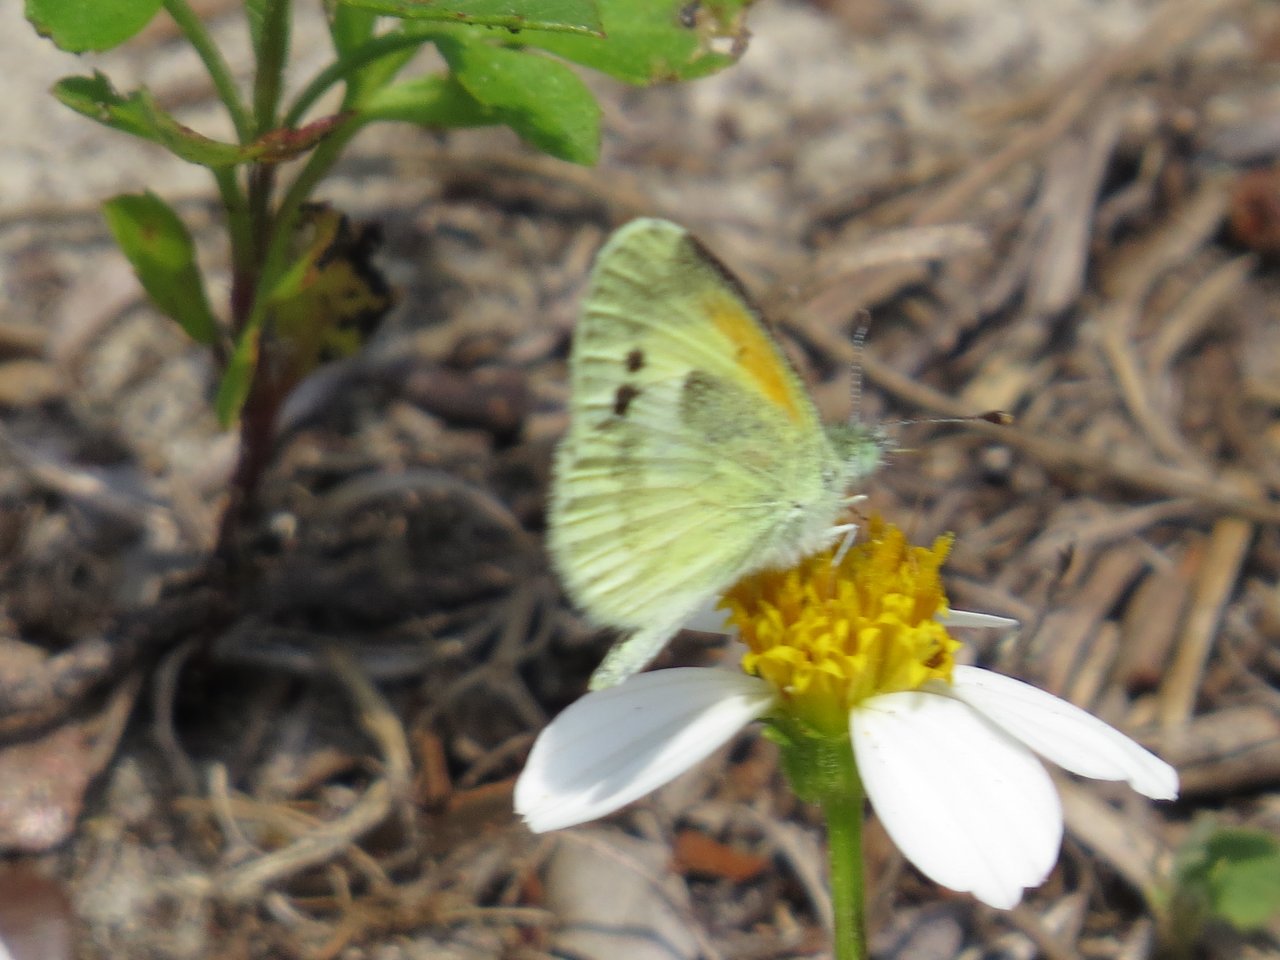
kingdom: Animalia
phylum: Arthropoda
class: Insecta
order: Lepidoptera
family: Pieridae
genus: Nathalis
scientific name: Nathalis iole
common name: Dainty Sulphur
